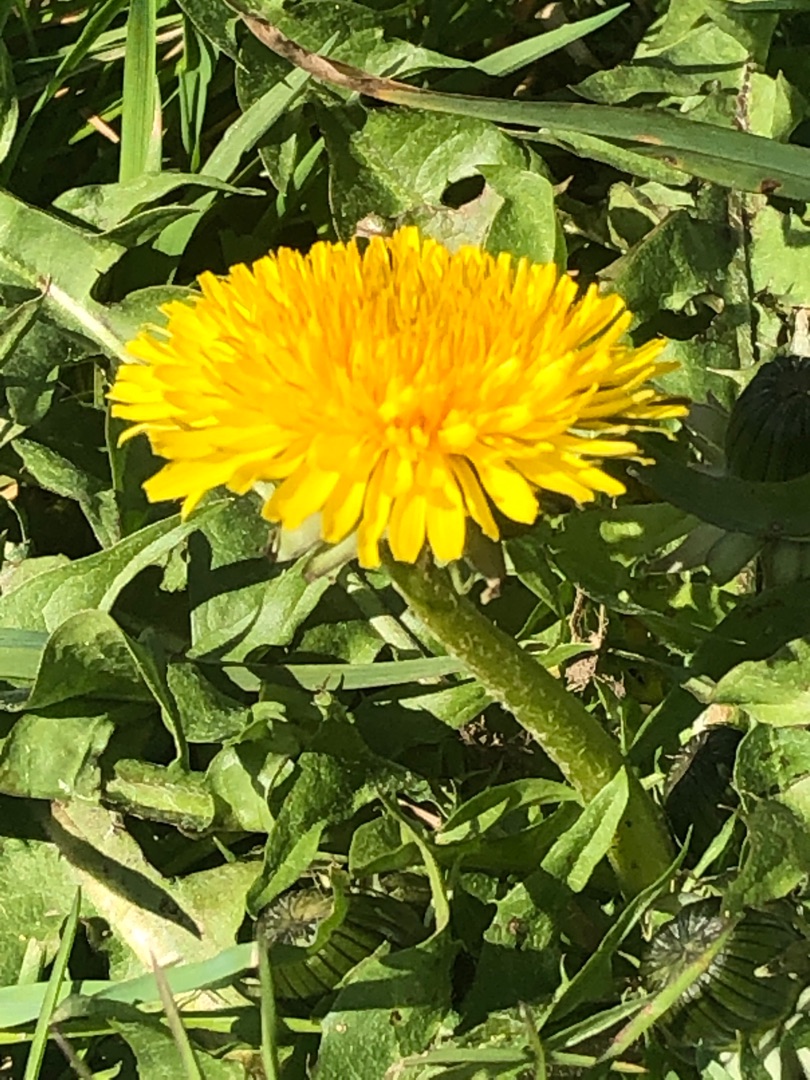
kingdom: Plantae
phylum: Tracheophyta
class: Magnoliopsida
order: Asterales
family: Asteraceae
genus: Taraxacum
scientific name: Taraxacum
